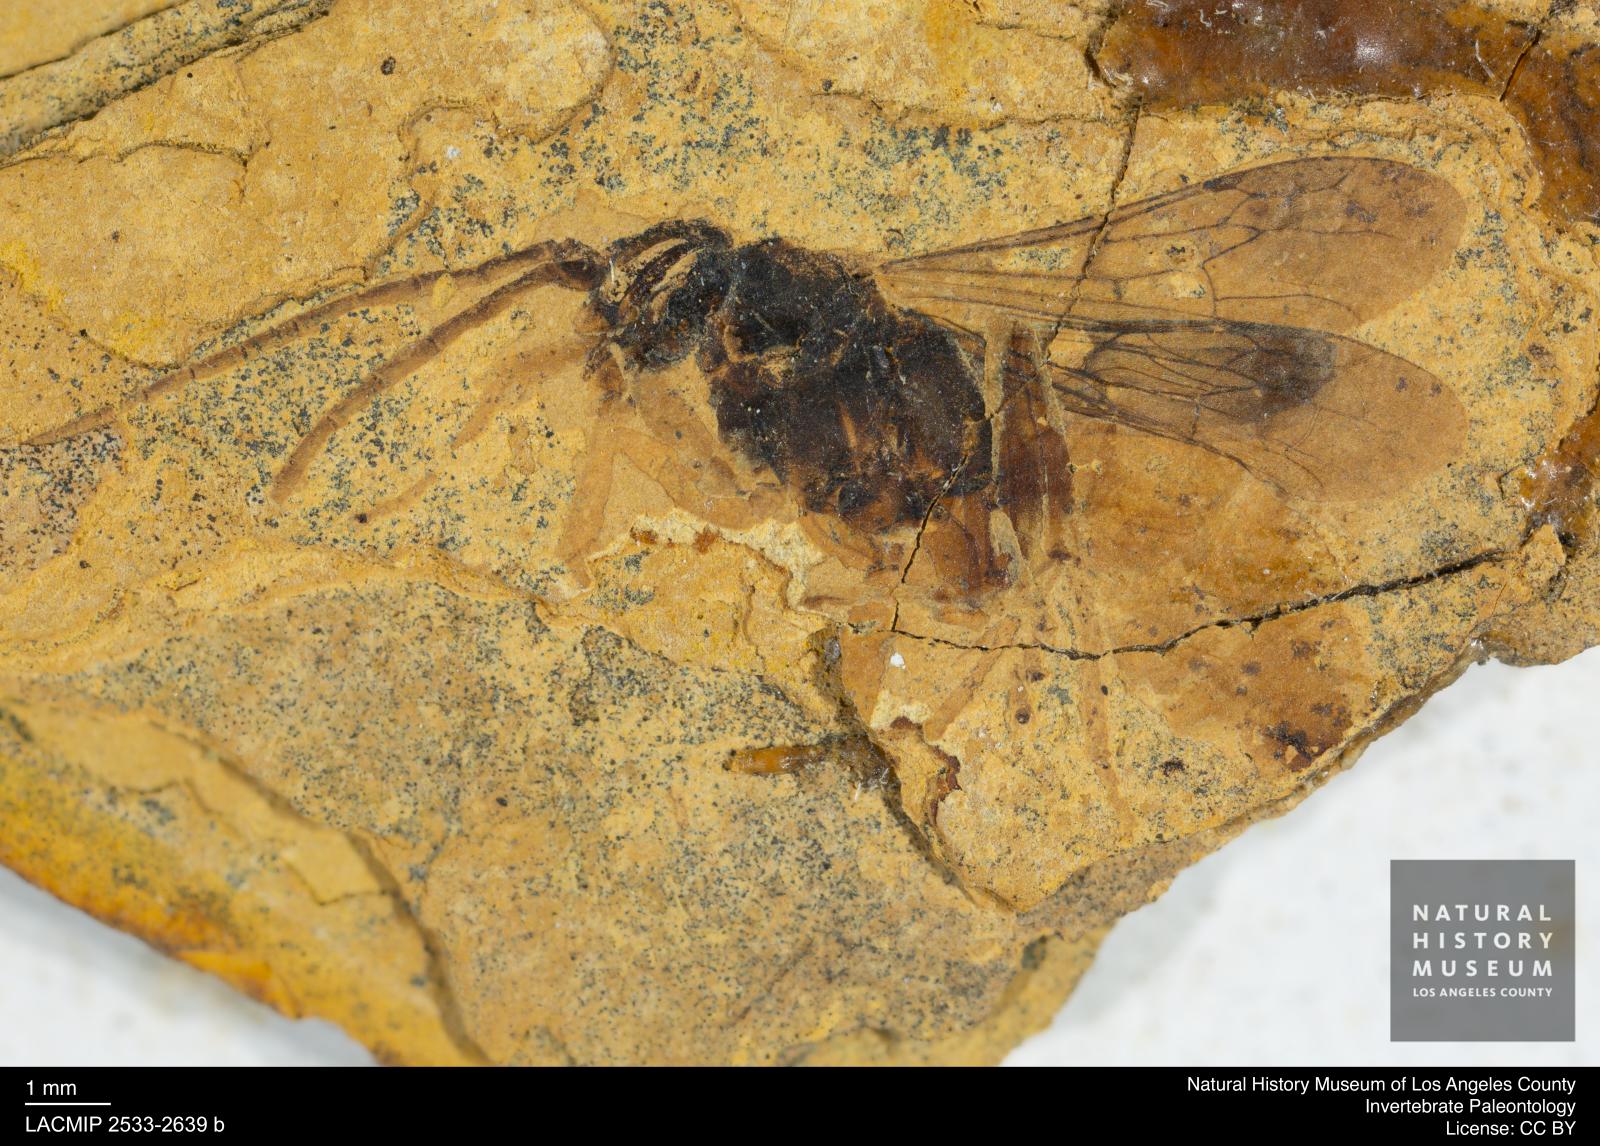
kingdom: Animalia
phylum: Arthropoda
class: Insecta
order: Hymenoptera
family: Pompilidae
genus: Priocnemis
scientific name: Priocnemis
